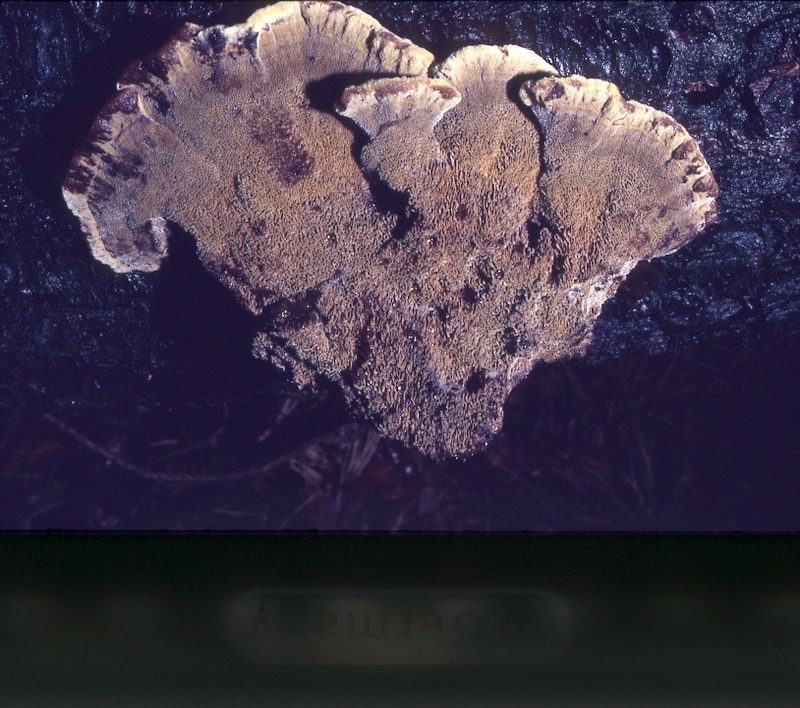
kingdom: Fungi
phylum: Basidiomycota
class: Agaricomycetes
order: Polyporales
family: Laetiporaceae
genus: Phaeolus
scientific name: Phaeolus schweinitzii
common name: Dyer's mazegill
